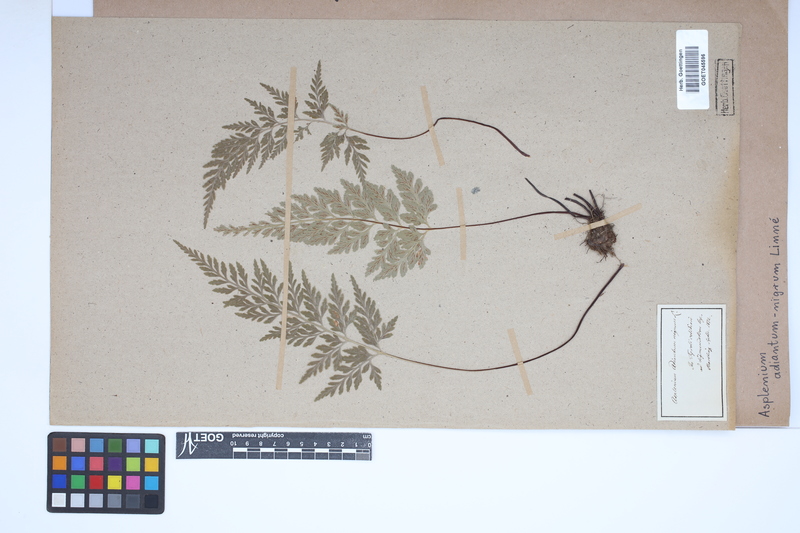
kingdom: Plantae
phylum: Tracheophyta
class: Polypodiopsida
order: Polypodiales
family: Aspleniaceae
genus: Asplenium
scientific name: Asplenium adiantum-nigrum
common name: Black spleenwort
